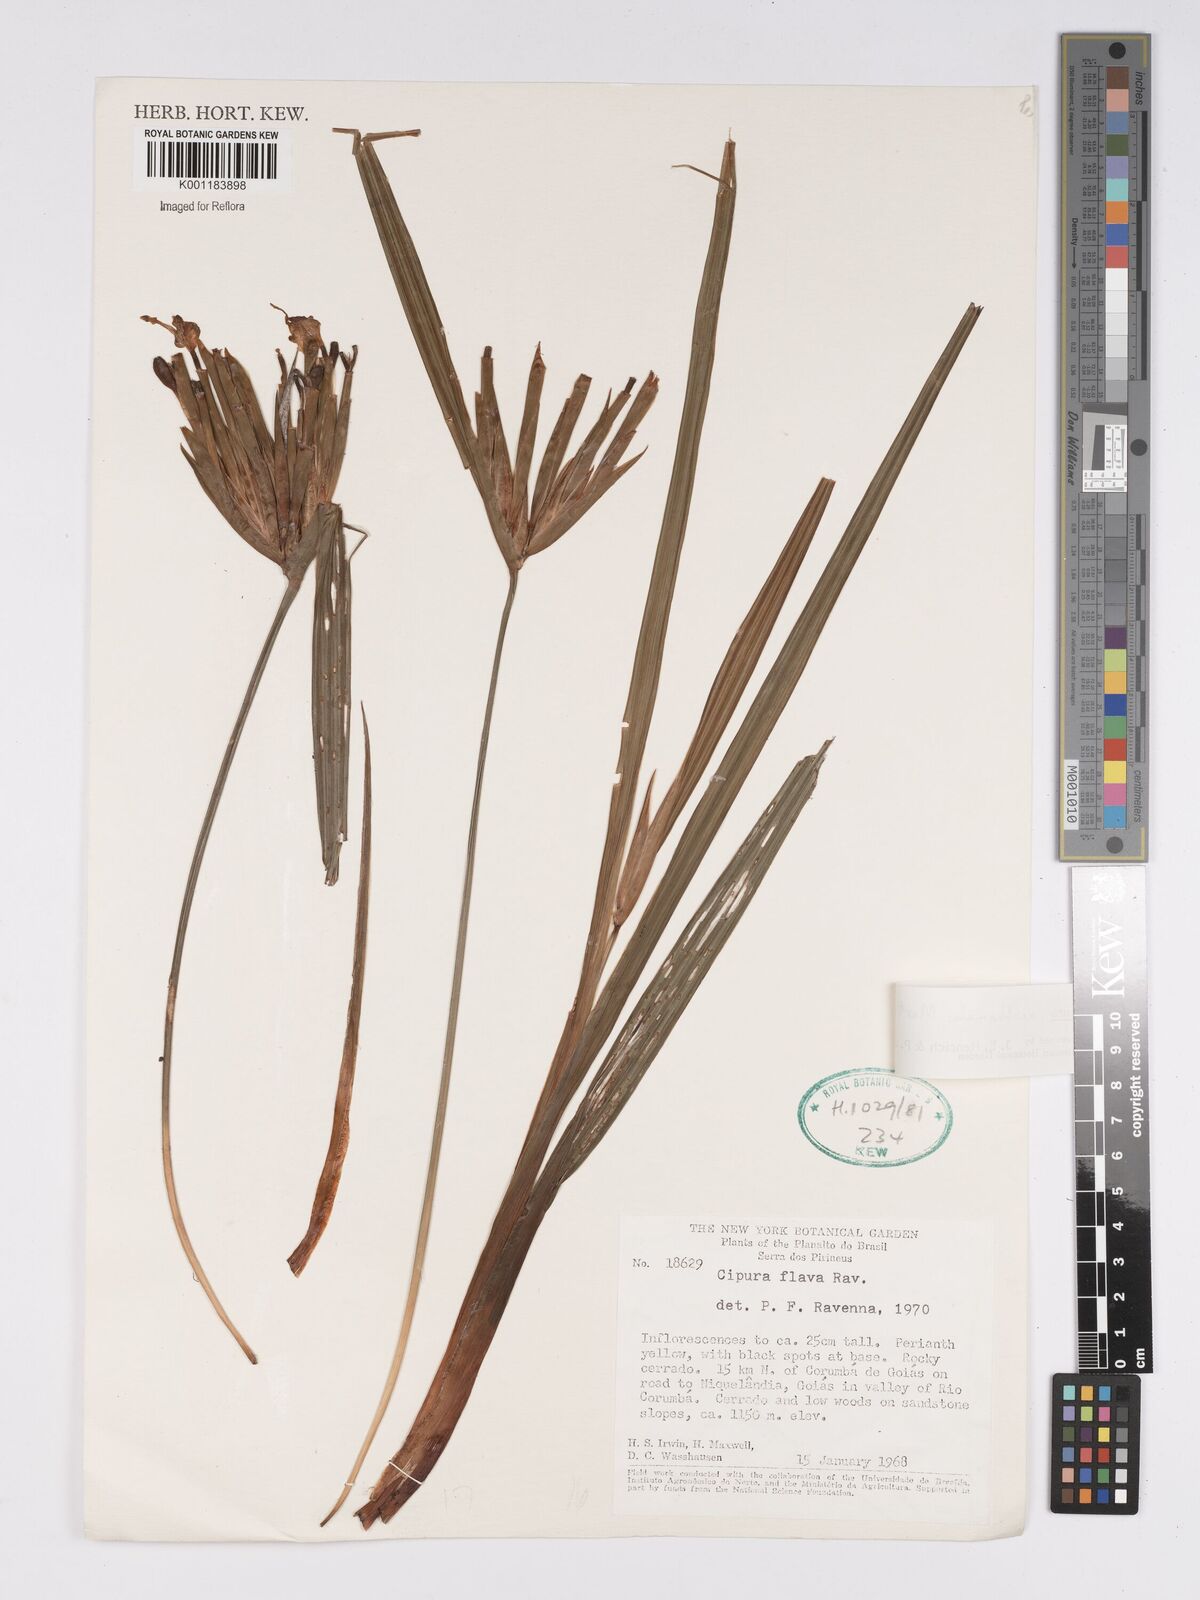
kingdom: Plantae
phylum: Tracheophyta
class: Liliopsida
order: Asparagales
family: Iridaceae
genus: Cipura
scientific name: Cipura xanthomelas
